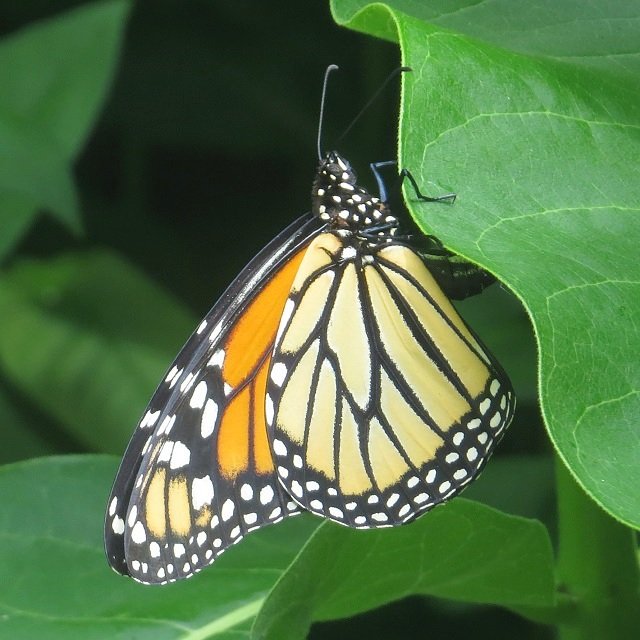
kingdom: Animalia
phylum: Arthropoda
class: Insecta
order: Lepidoptera
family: Nymphalidae
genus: Danaus
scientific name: Danaus plexippus
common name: Monarch
